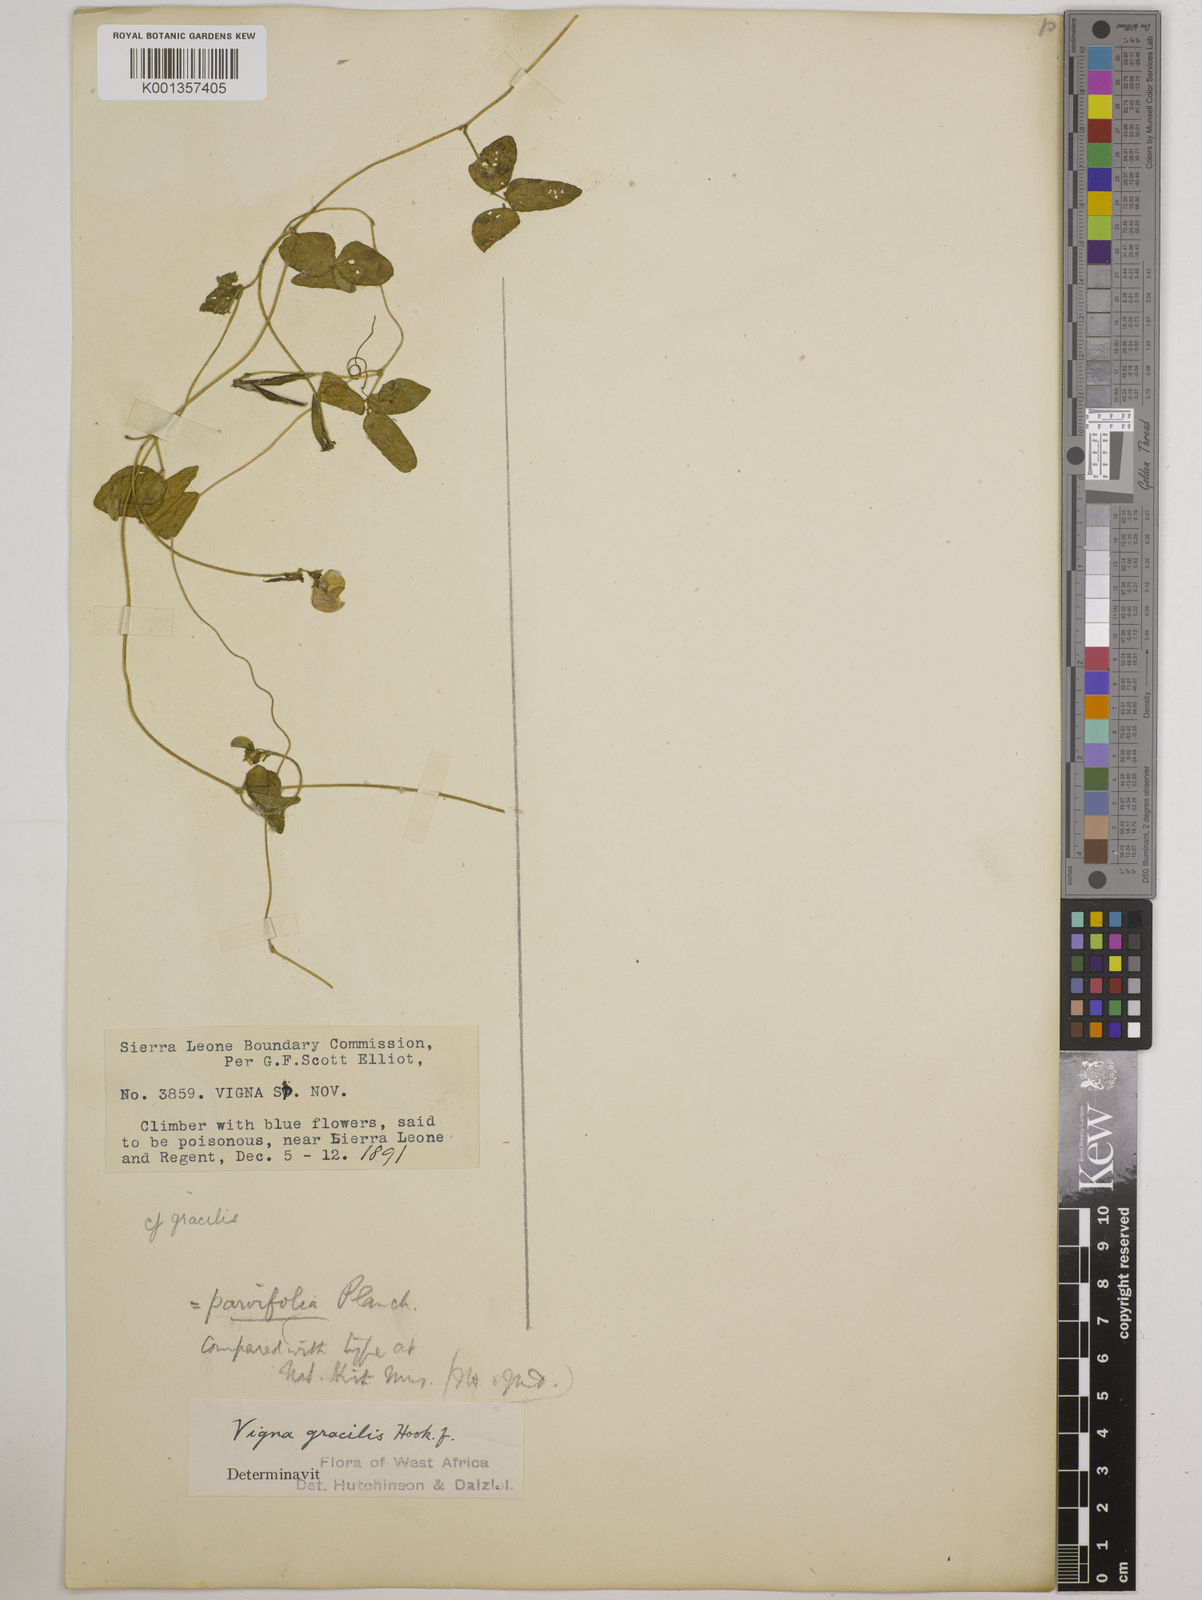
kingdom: Plantae
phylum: Tracheophyta
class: Magnoliopsida
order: Fabales
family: Fabaceae
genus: Vigna
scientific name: Vigna gracilis
